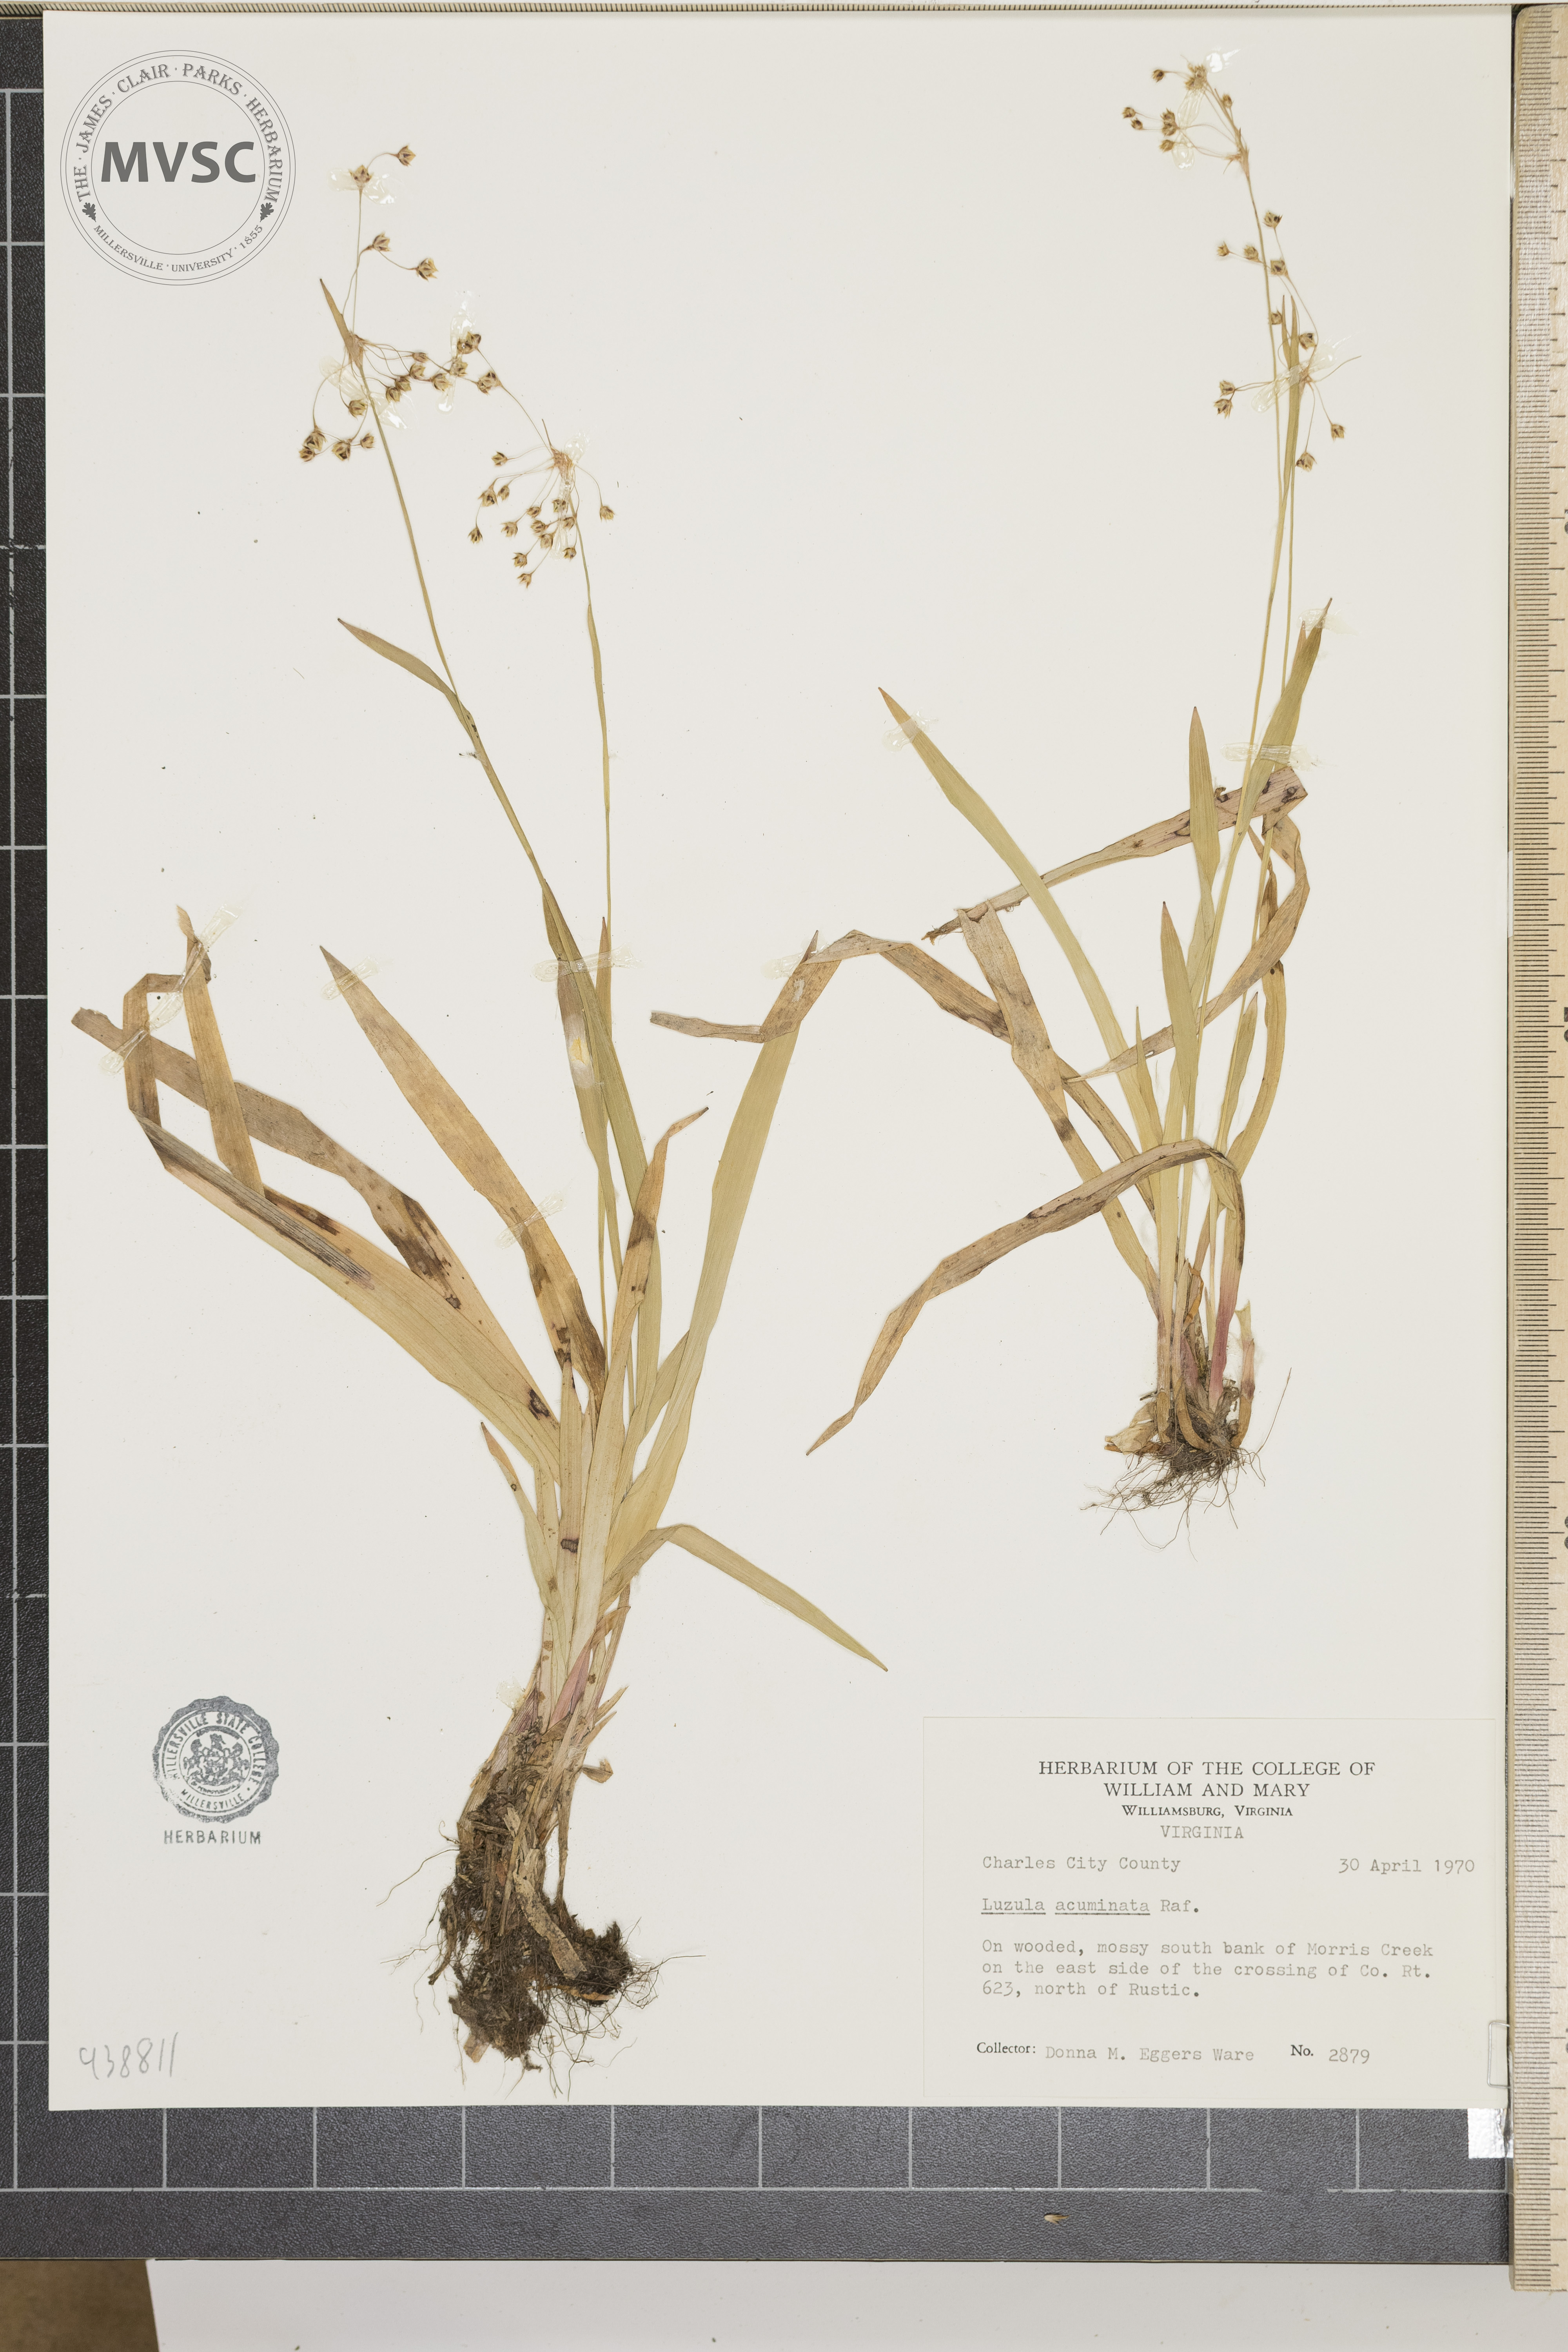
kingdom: Plantae
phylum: Tracheophyta
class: Liliopsida
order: Poales
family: Juncaceae
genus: Luzula
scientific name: Luzula acuminata
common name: Hairy woodrush
